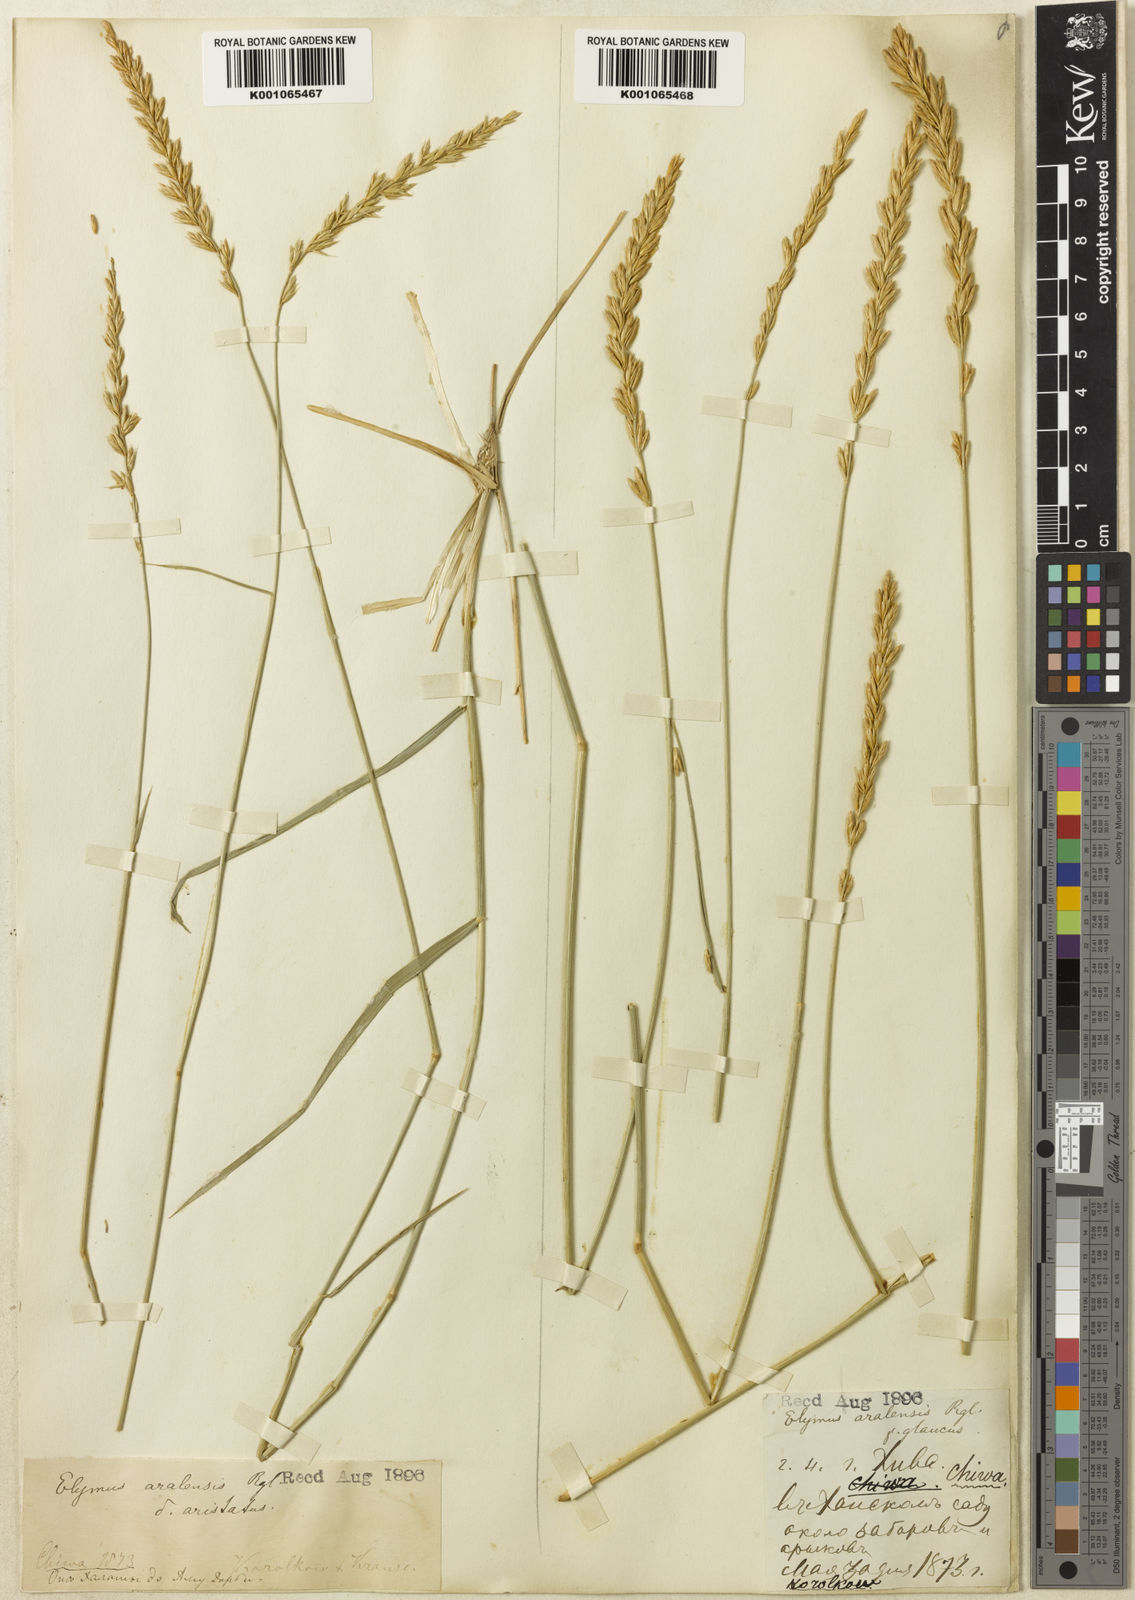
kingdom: Plantae
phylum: Tracheophyta
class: Liliopsida
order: Poales
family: Poaceae
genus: Leymus
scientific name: Leymus multicaulis
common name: Manystem wildrye
